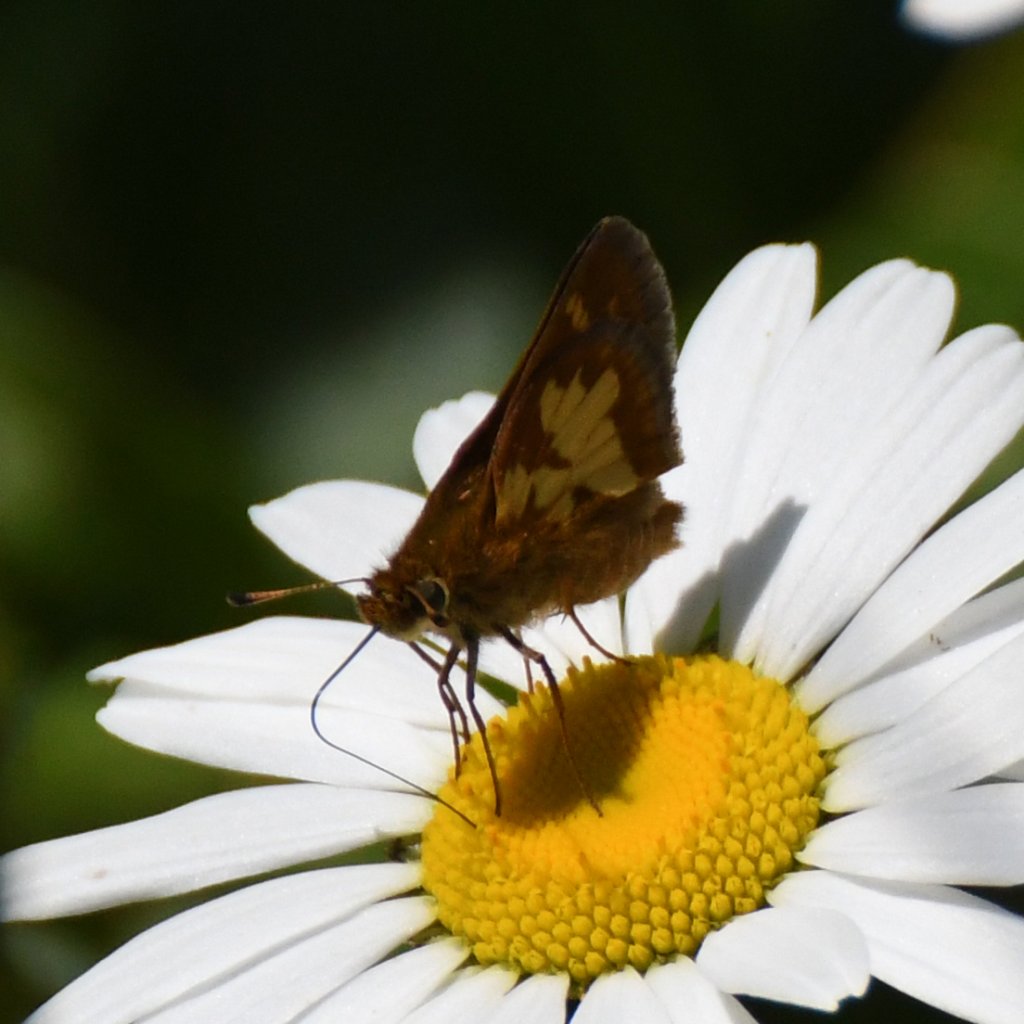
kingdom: Animalia
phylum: Arthropoda
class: Insecta
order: Lepidoptera
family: Hesperiidae
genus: Polites
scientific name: Polites coras
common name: Peck's Skipper
